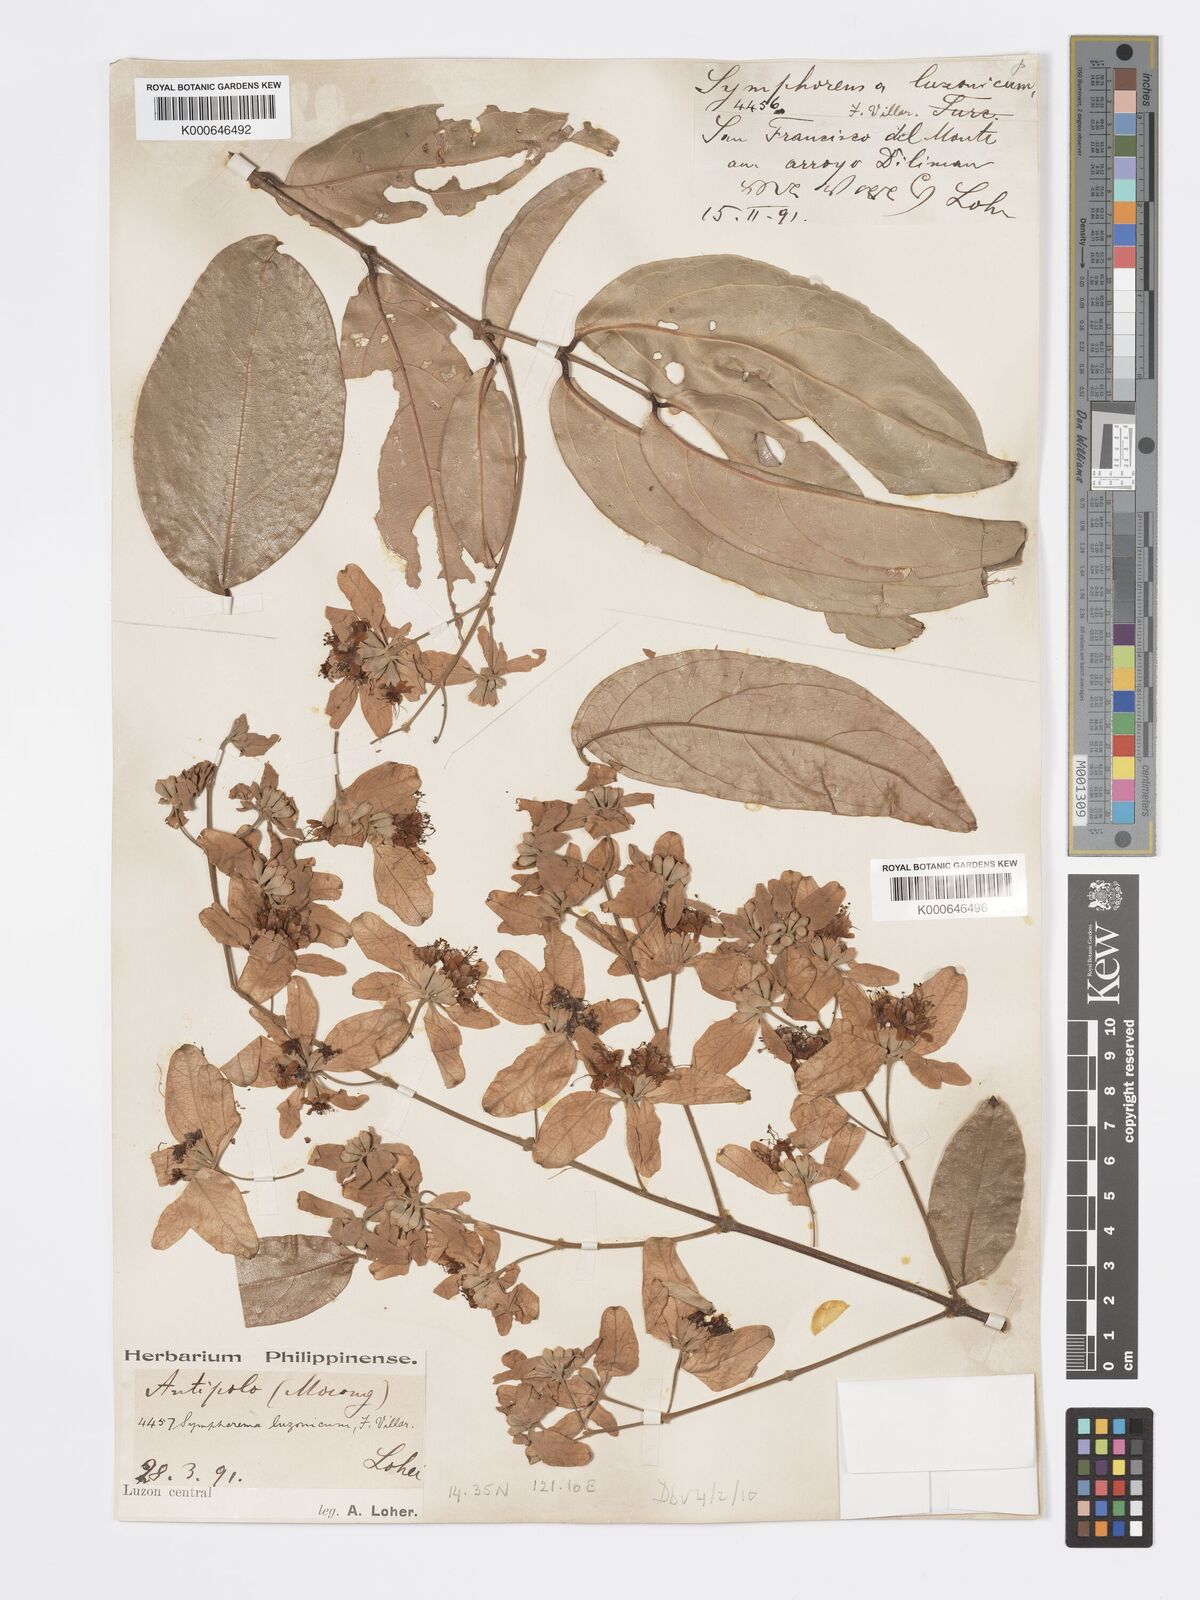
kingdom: Plantae
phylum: Tracheophyta
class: Magnoliopsida
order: Lamiales
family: Lamiaceae
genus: Symphorema
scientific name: Symphorema luzonicum
